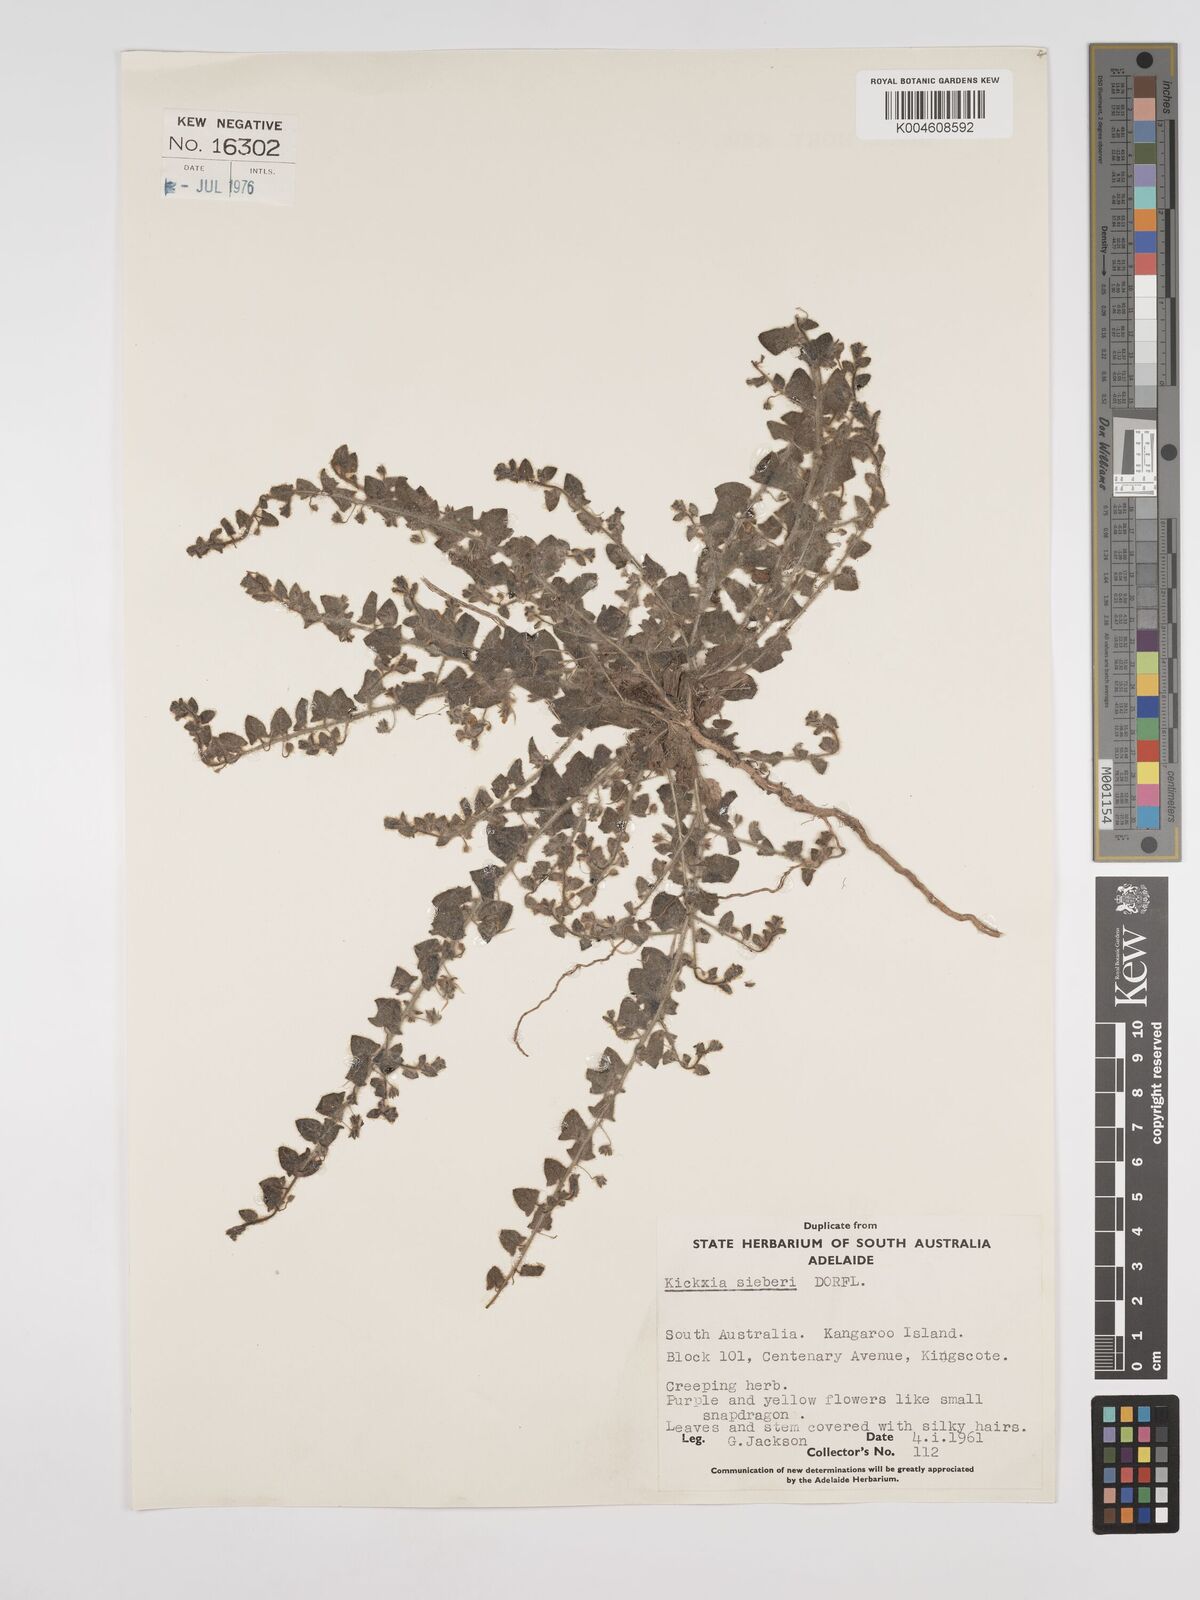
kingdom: Plantae
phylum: Tracheophyta
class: Magnoliopsida
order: Lamiales
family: Plantaginaceae
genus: Kickxia
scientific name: Kickxia elatine
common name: Sharp-leaved fluellen
